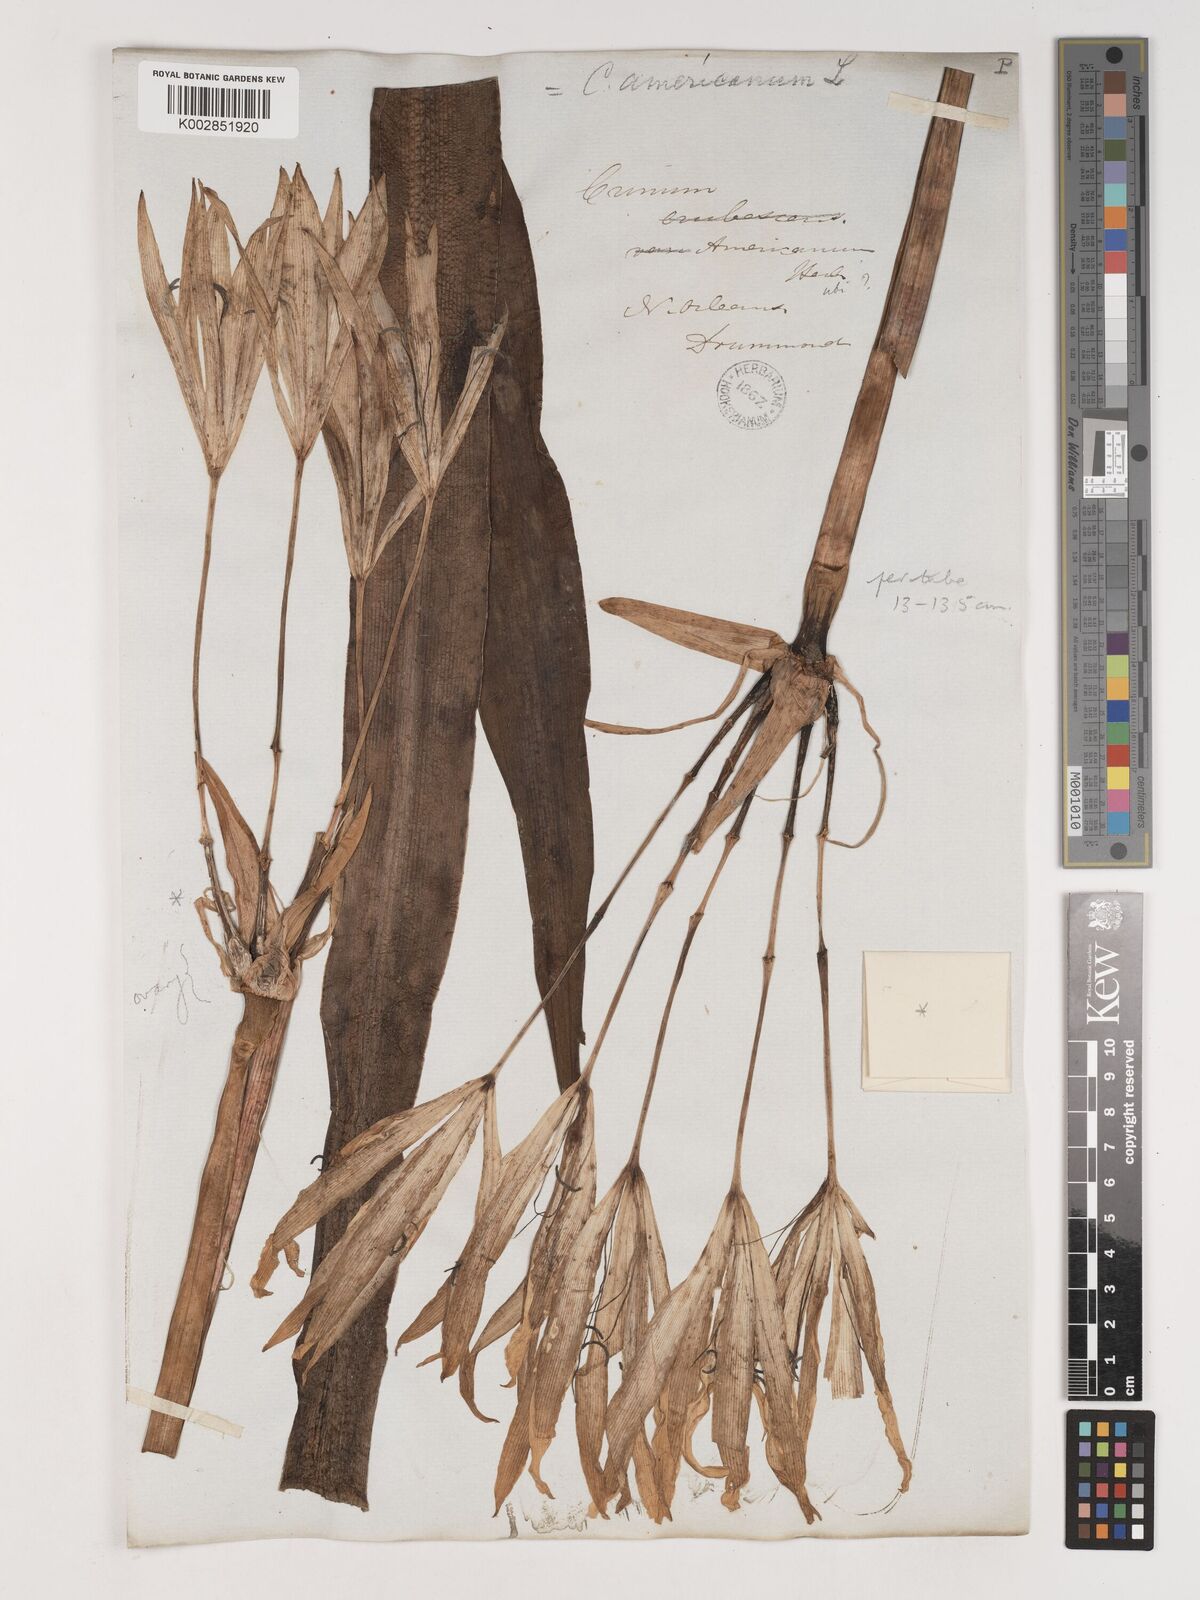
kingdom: Plantae
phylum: Tracheophyta
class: Liliopsida
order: Asparagales
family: Amaryllidaceae
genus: Crinum
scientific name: Crinum americanum
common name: Florida swamp-lily
